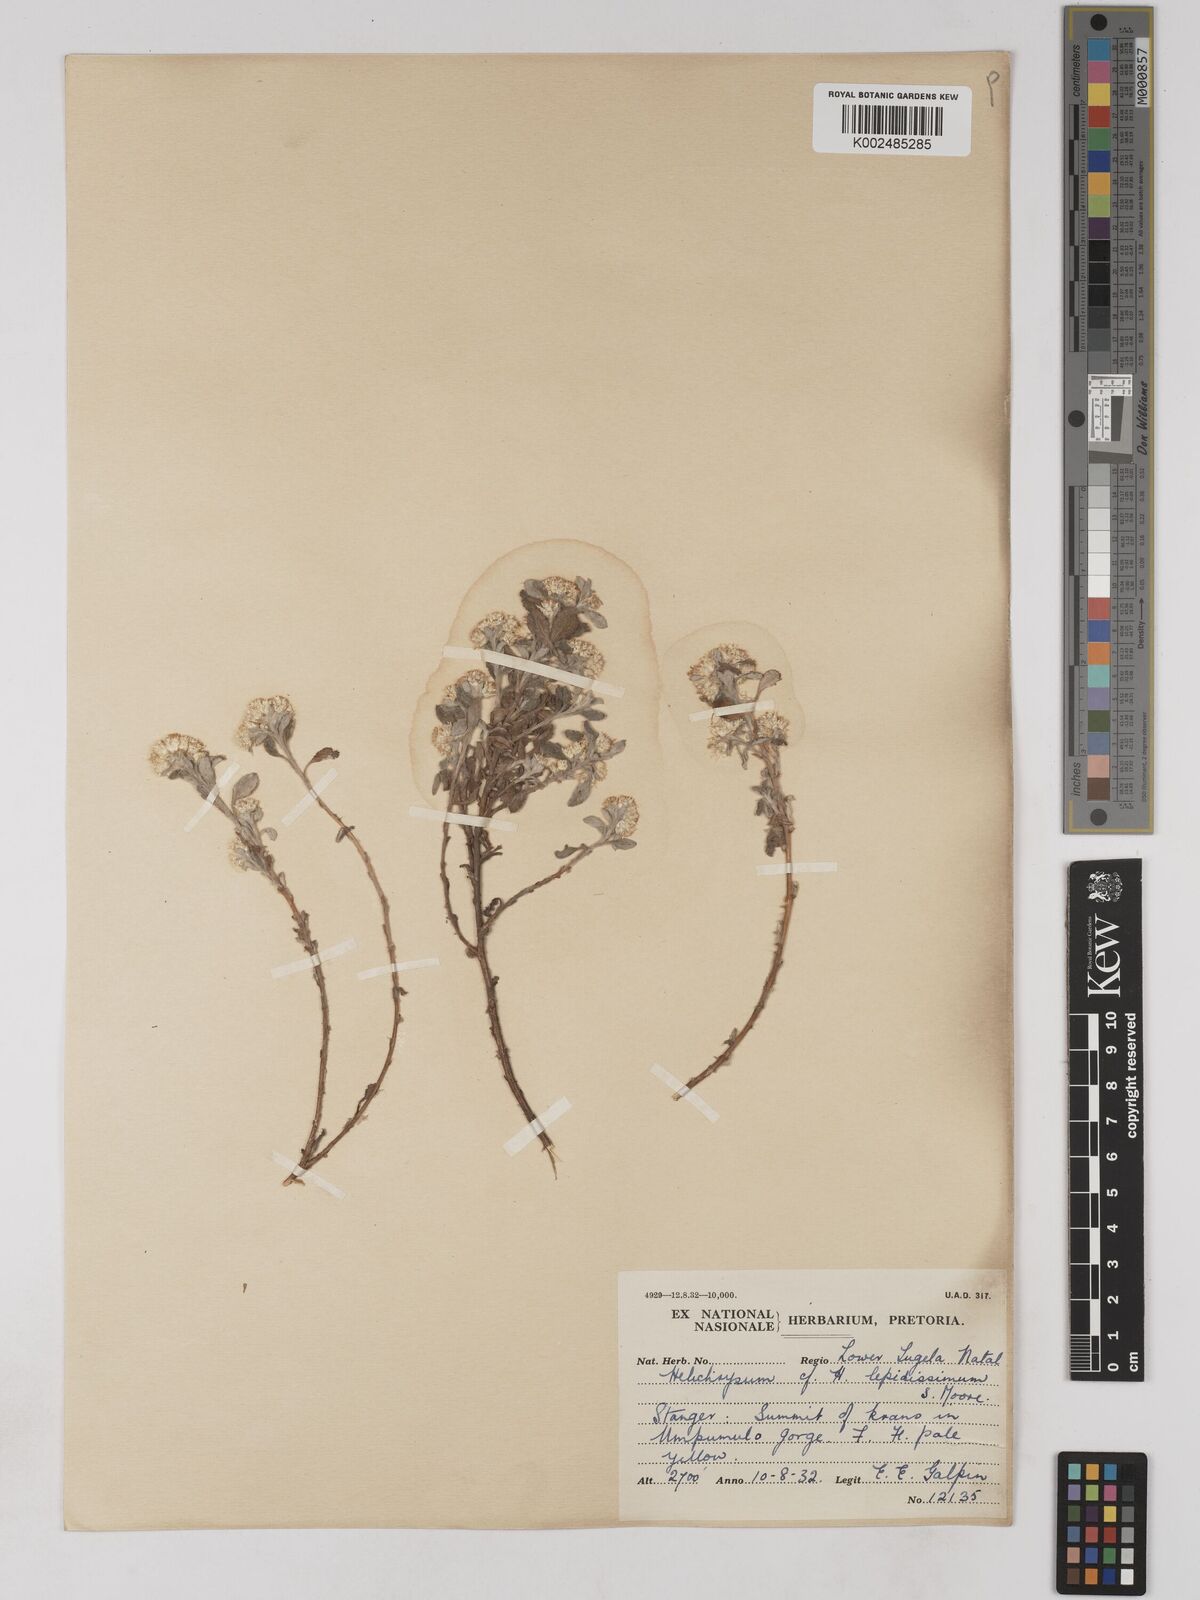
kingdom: Plantae
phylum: Tracheophyta
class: Magnoliopsida
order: Asterales
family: Asteraceae
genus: Helichrysum
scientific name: Helichrysum lepidissimum
